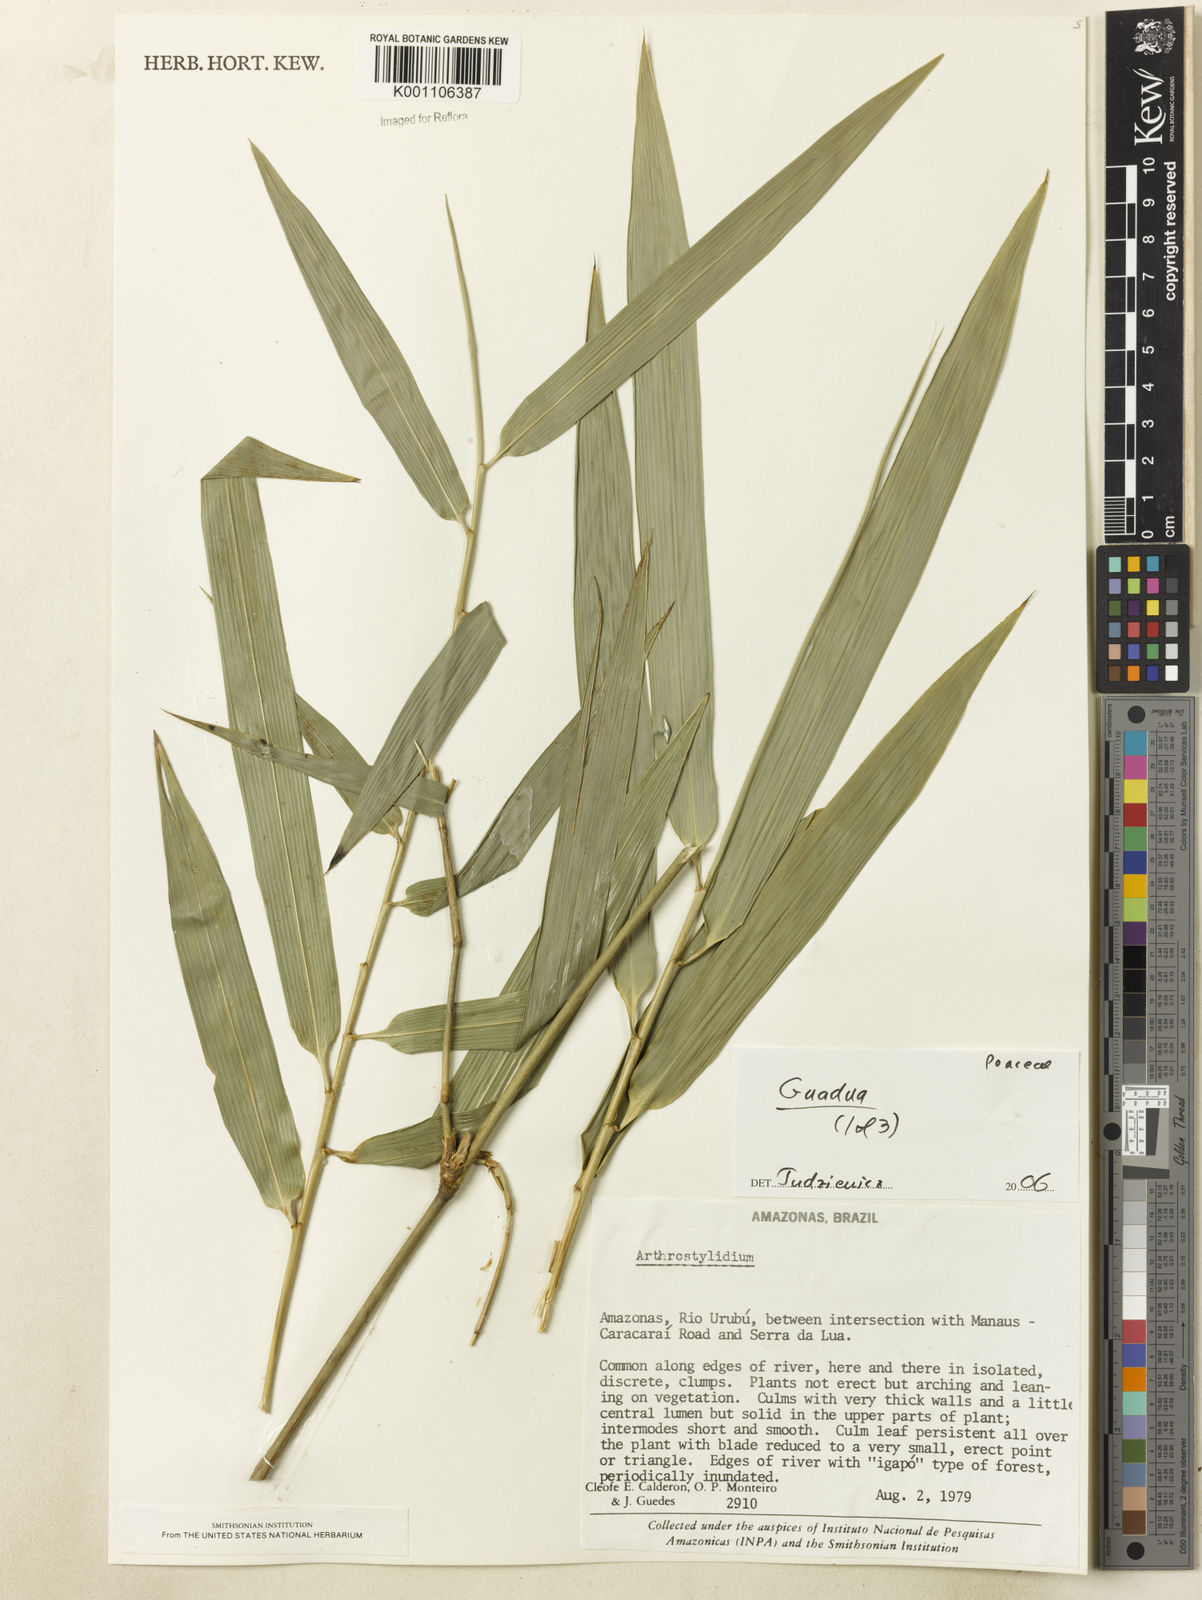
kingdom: Plantae
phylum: Tracheophyta
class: Liliopsida
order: Poales
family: Poaceae
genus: Guadua
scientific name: Guadua
